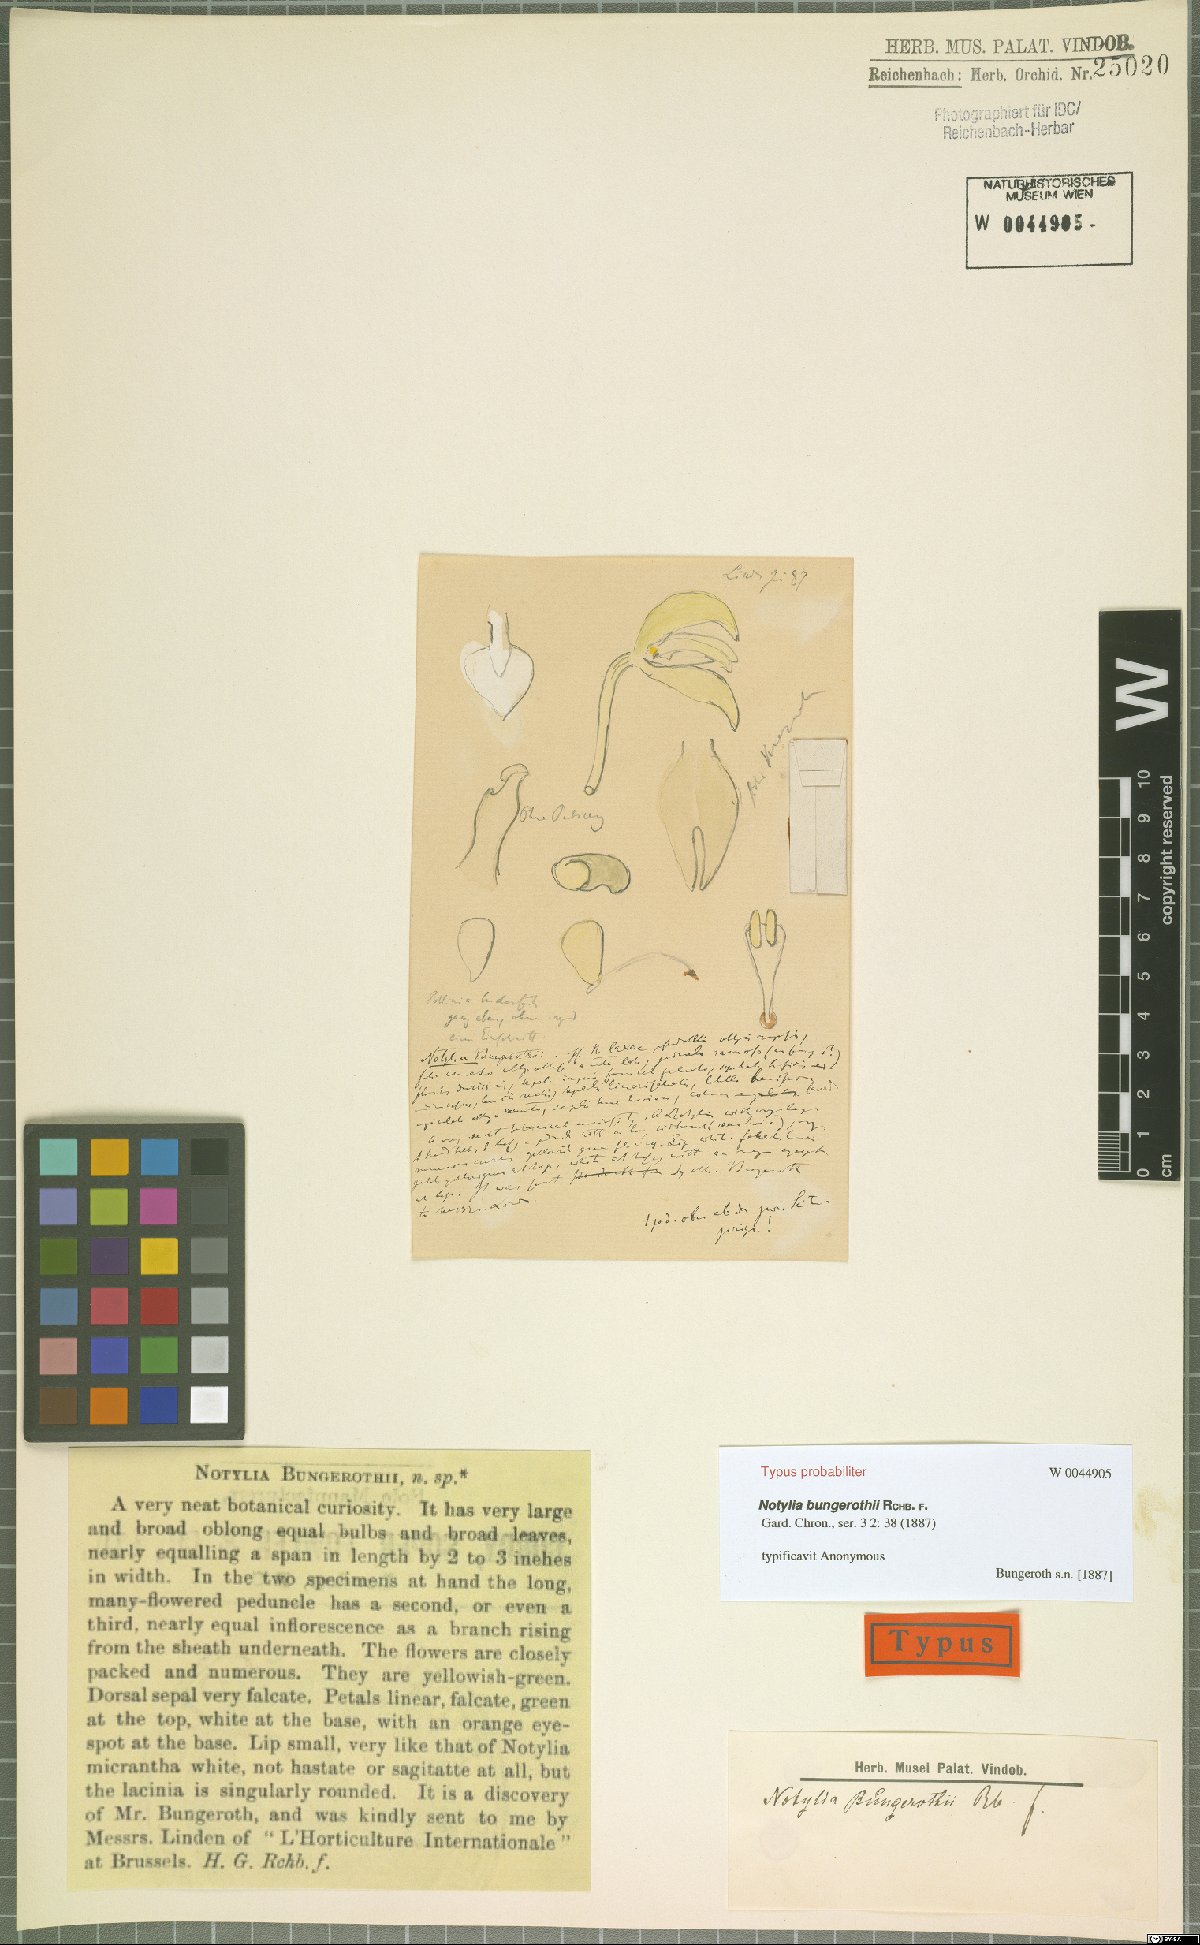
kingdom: Plantae
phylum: Tracheophyta
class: Liliopsida
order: Asparagales
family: Orchidaceae
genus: Notylia
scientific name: Notylia bungerothii
